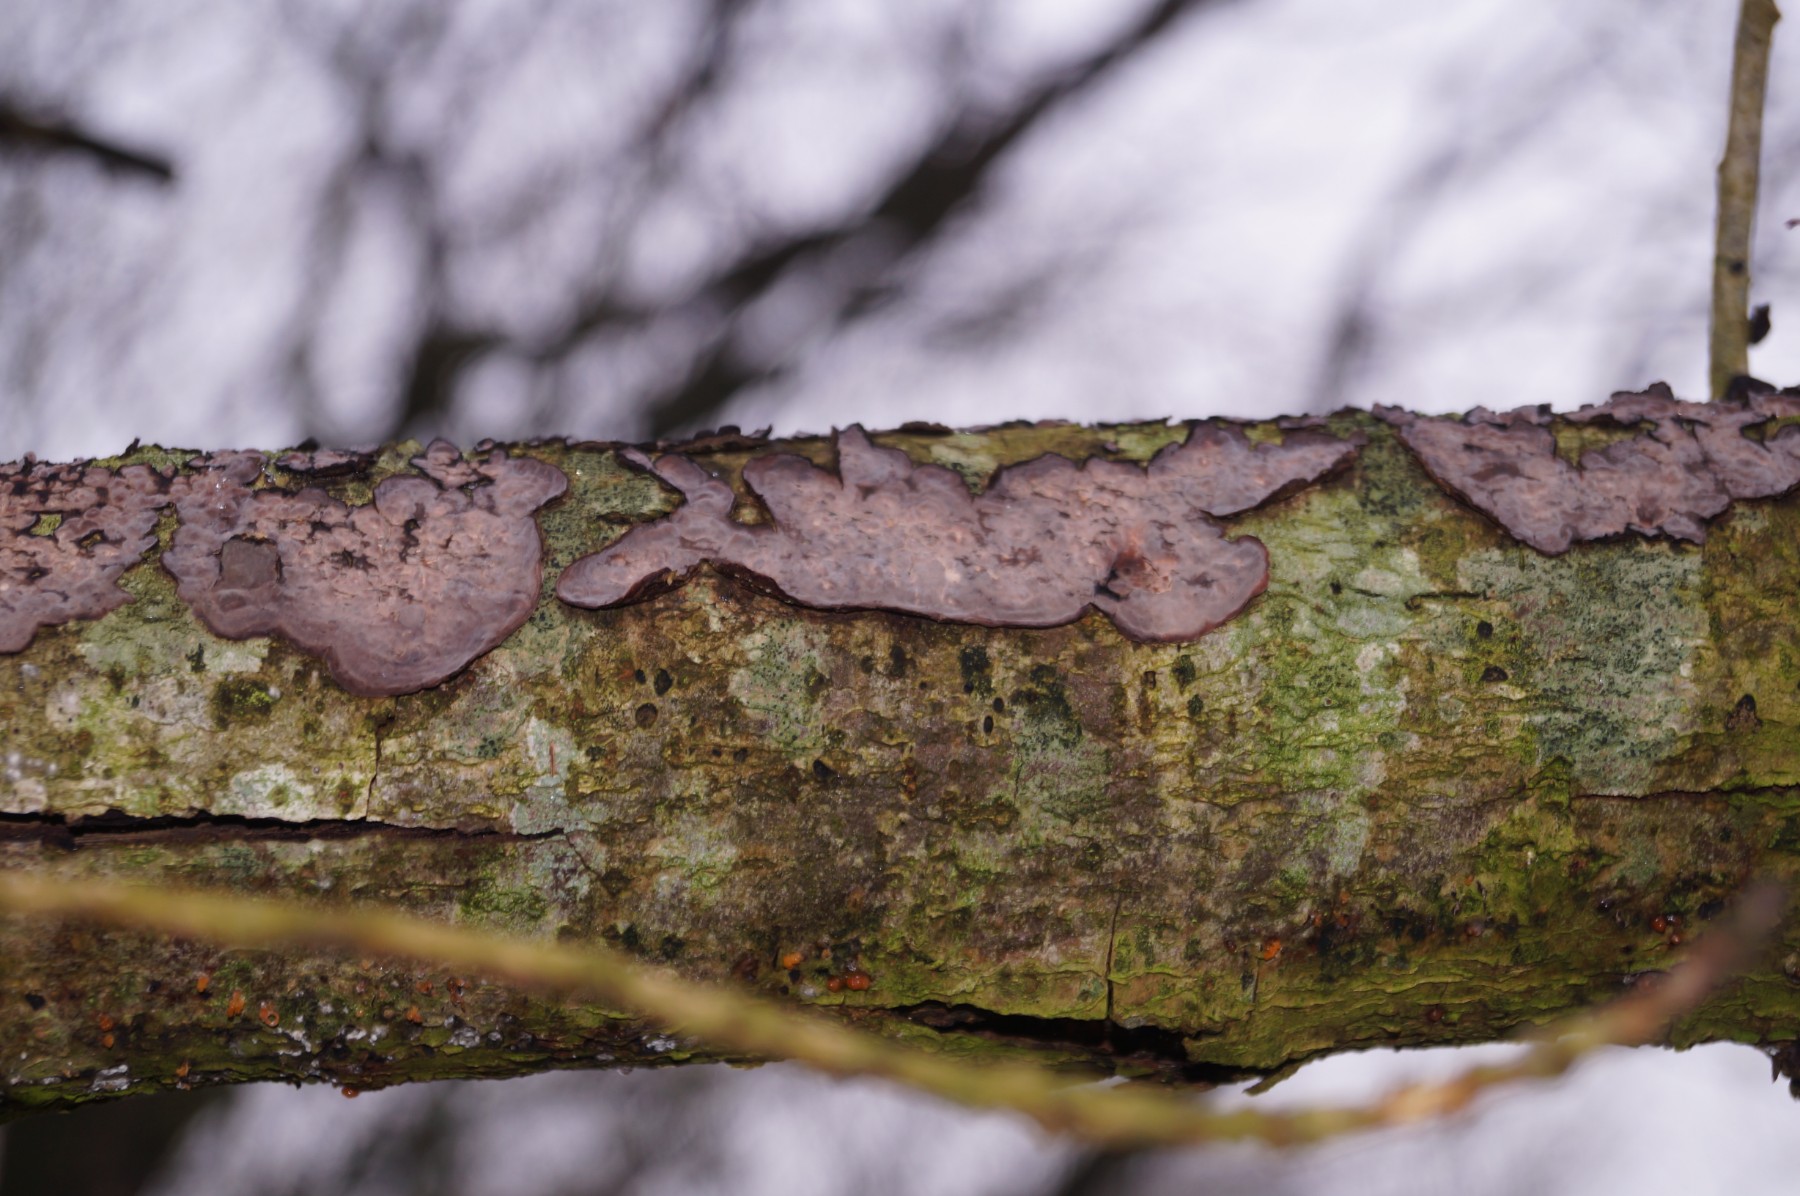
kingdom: Fungi
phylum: Basidiomycota
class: Agaricomycetes
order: Russulales
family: Peniophoraceae
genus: Peniophora
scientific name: Peniophora quercina
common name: ege-voksskind
